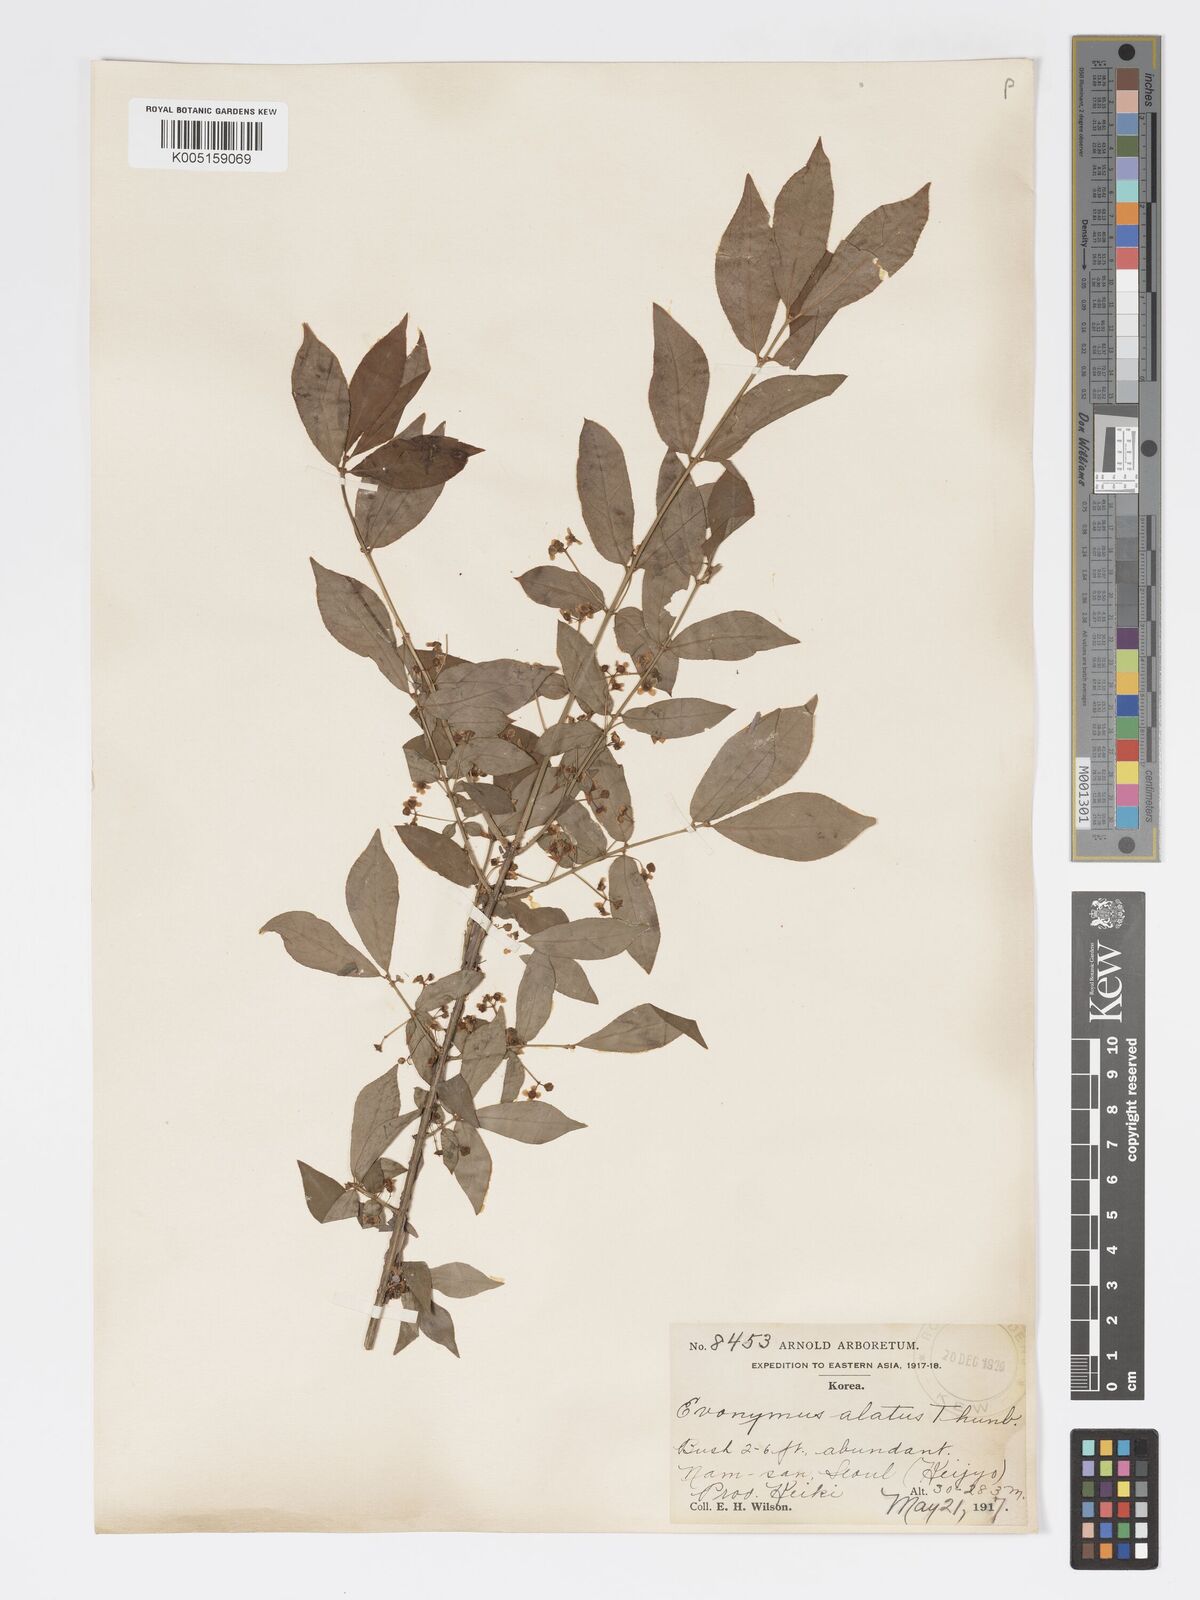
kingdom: Plantae
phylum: Tracheophyta
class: Magnoliopsida
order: Celastrales
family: Celastraceae
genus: Euonymus
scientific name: Euonymus
